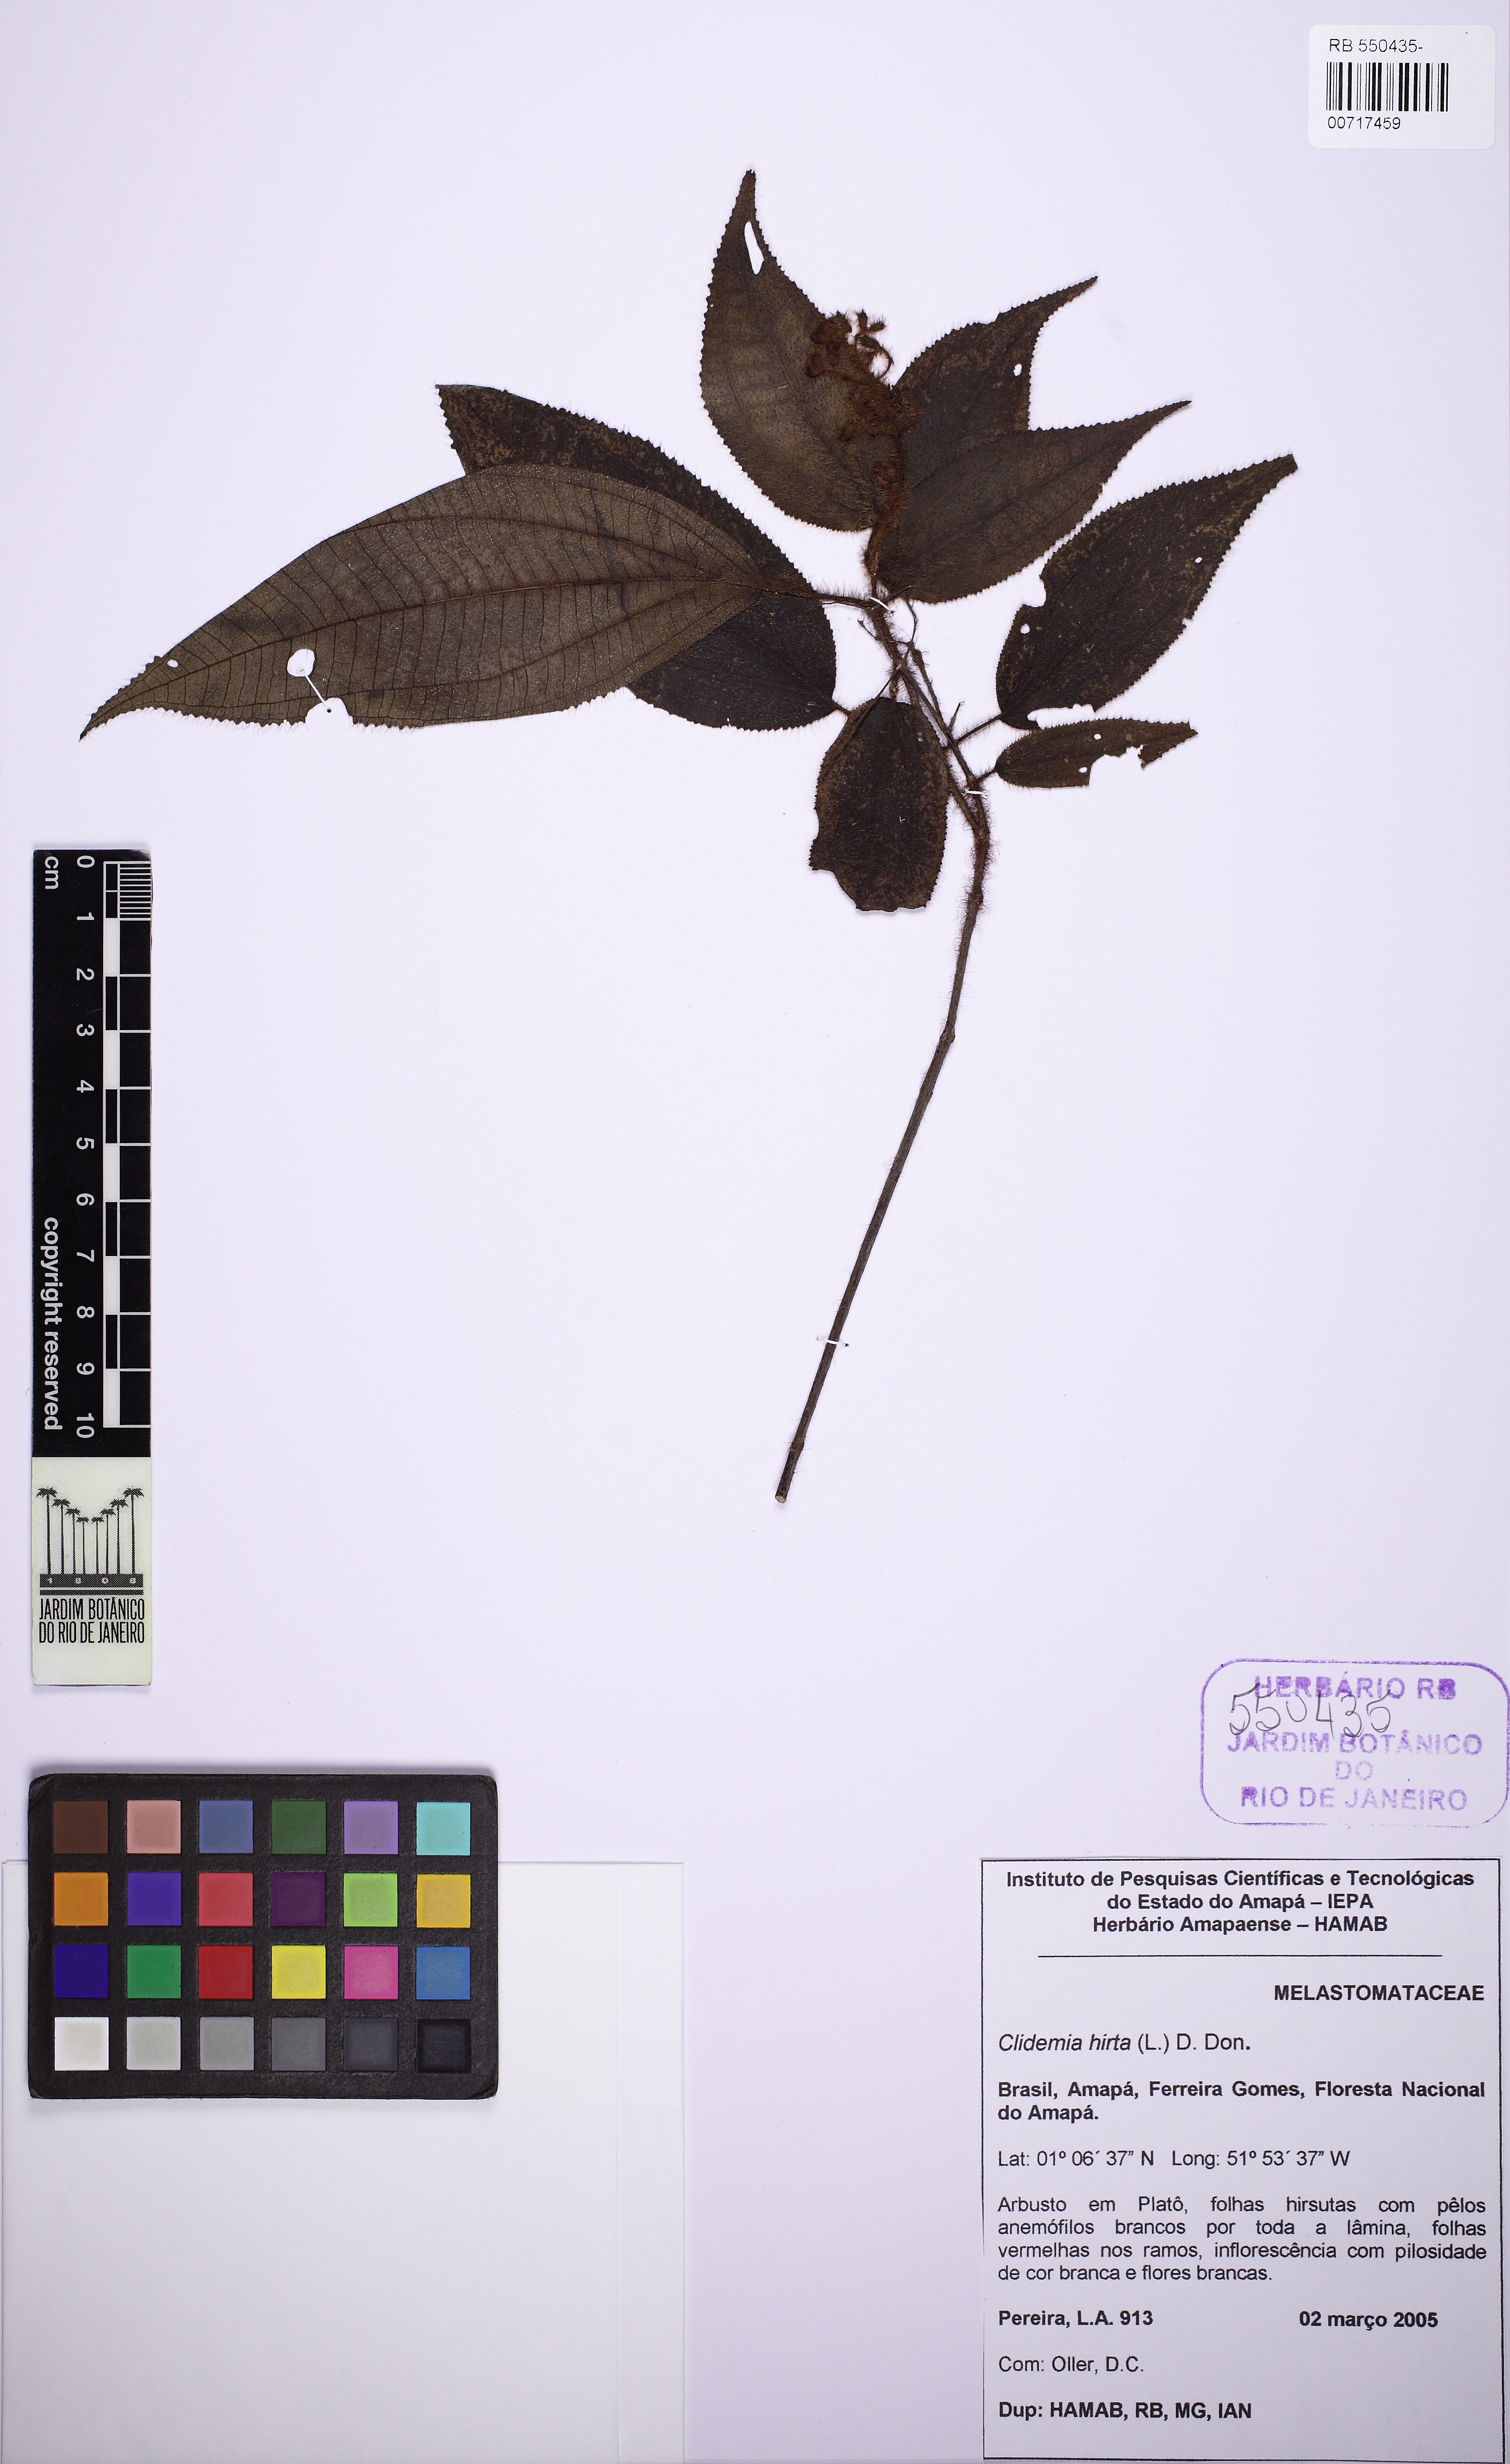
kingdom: Plantae
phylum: Tracheophyta
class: Magnoliopsida
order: Myrtales
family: Melastomataceae
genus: Miconia
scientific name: Miconia crenata
